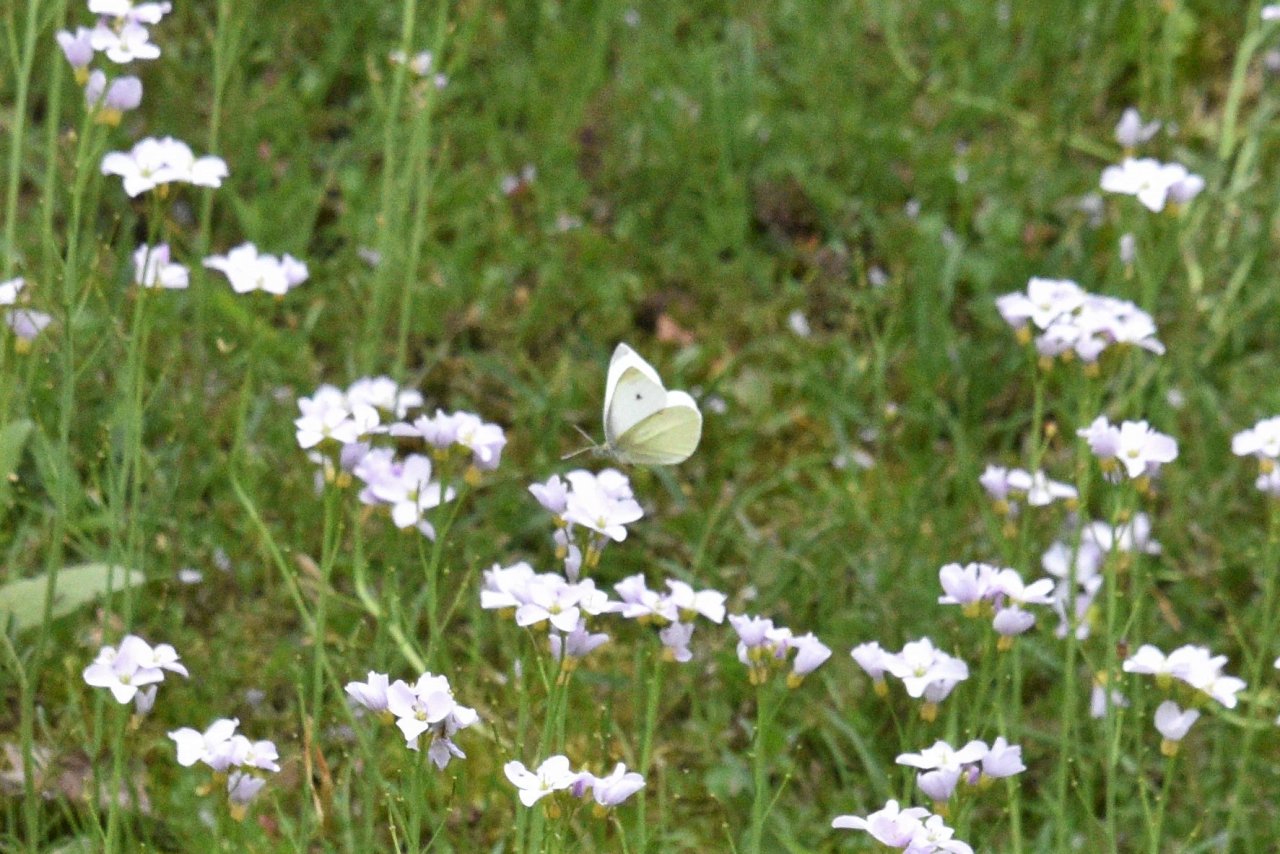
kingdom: Animalia
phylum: Arthropoda
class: Insecta
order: Lepidoptera
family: Pieridae
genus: Pieris
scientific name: Pieris rapae
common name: Cabbage White
